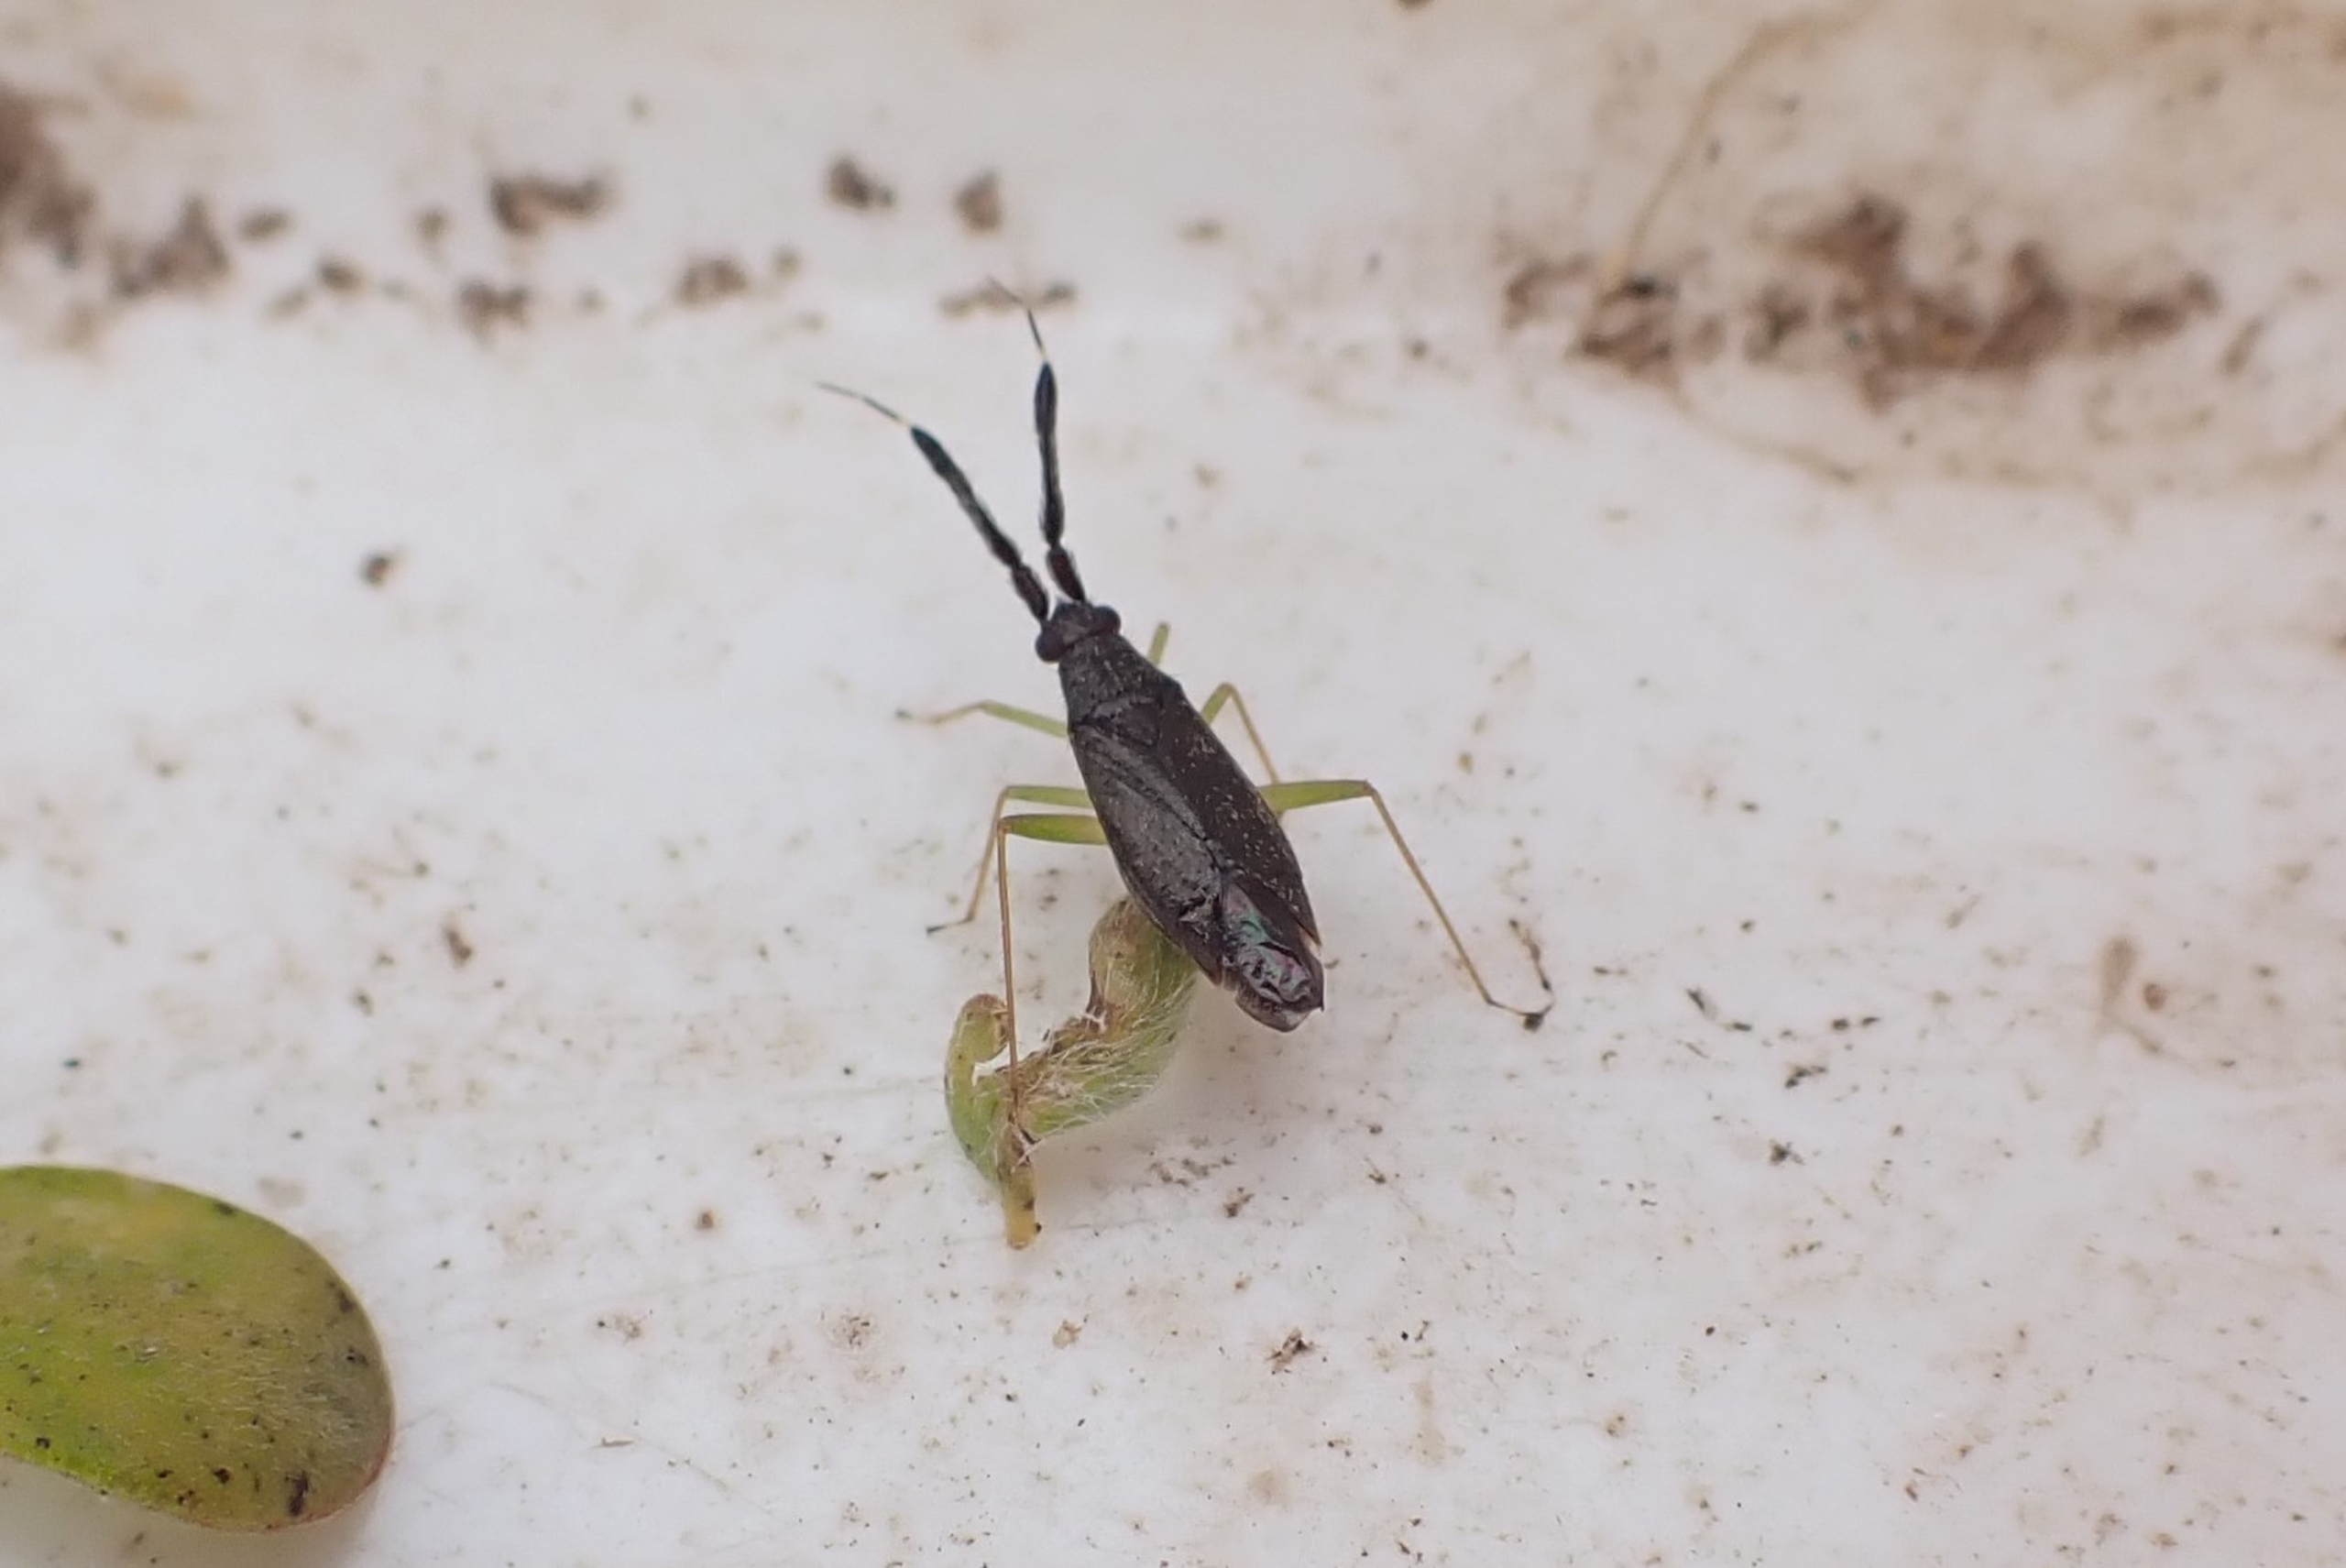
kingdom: Animalia
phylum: Arthropoda
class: Insecta
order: Hemiptera
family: Miridae
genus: Heterotoma
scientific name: Heterotoma planicornis
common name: Køllehornet blomstertæge
